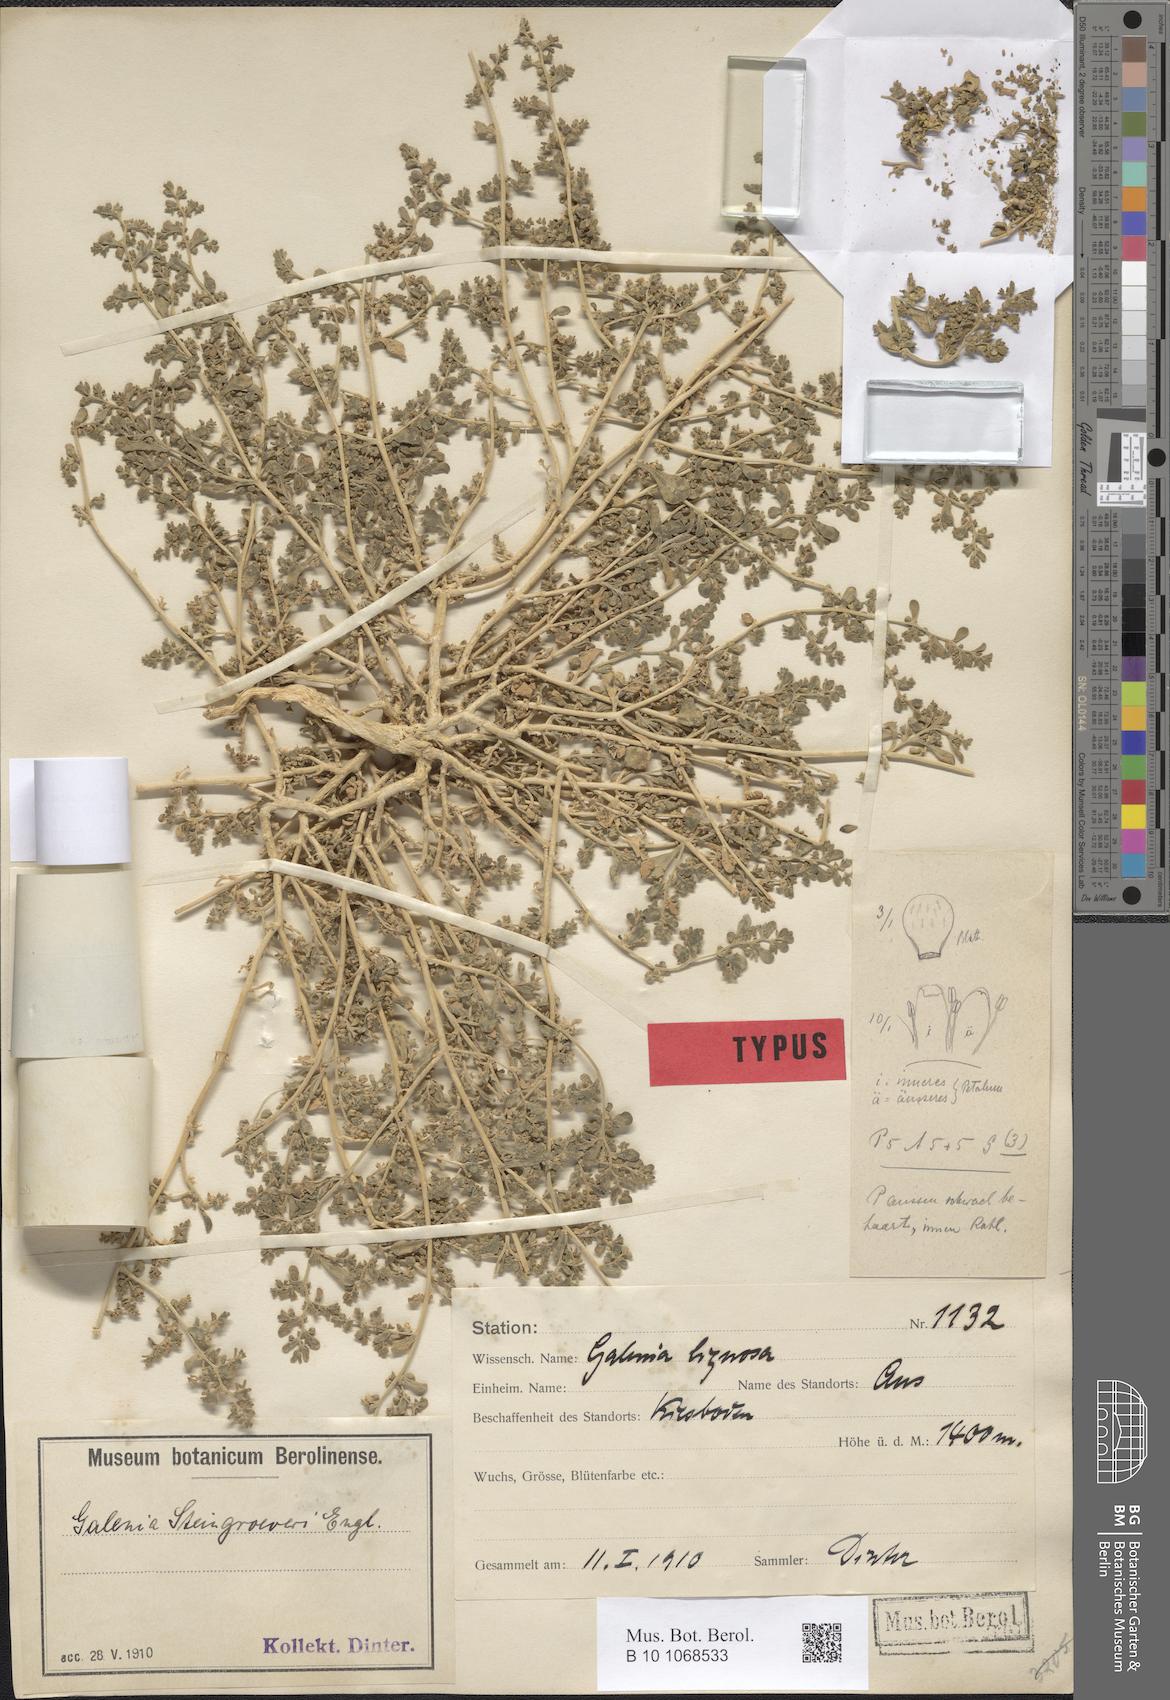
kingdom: Plantae
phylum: Tracheophyta
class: Magnoliopsida
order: Caryophyllales
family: Aizoaceae
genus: Aizoon
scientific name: Aizoon mezianum
